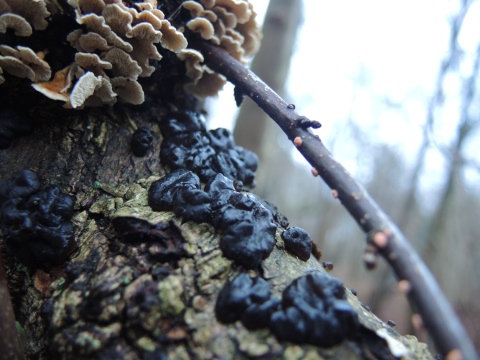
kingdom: Fungi
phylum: Basidiomycota
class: Agaricomycetes
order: Auriculariales
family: Auriculariaceae
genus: Exidia
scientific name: Exidia nigricans
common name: almindelig bævretop
